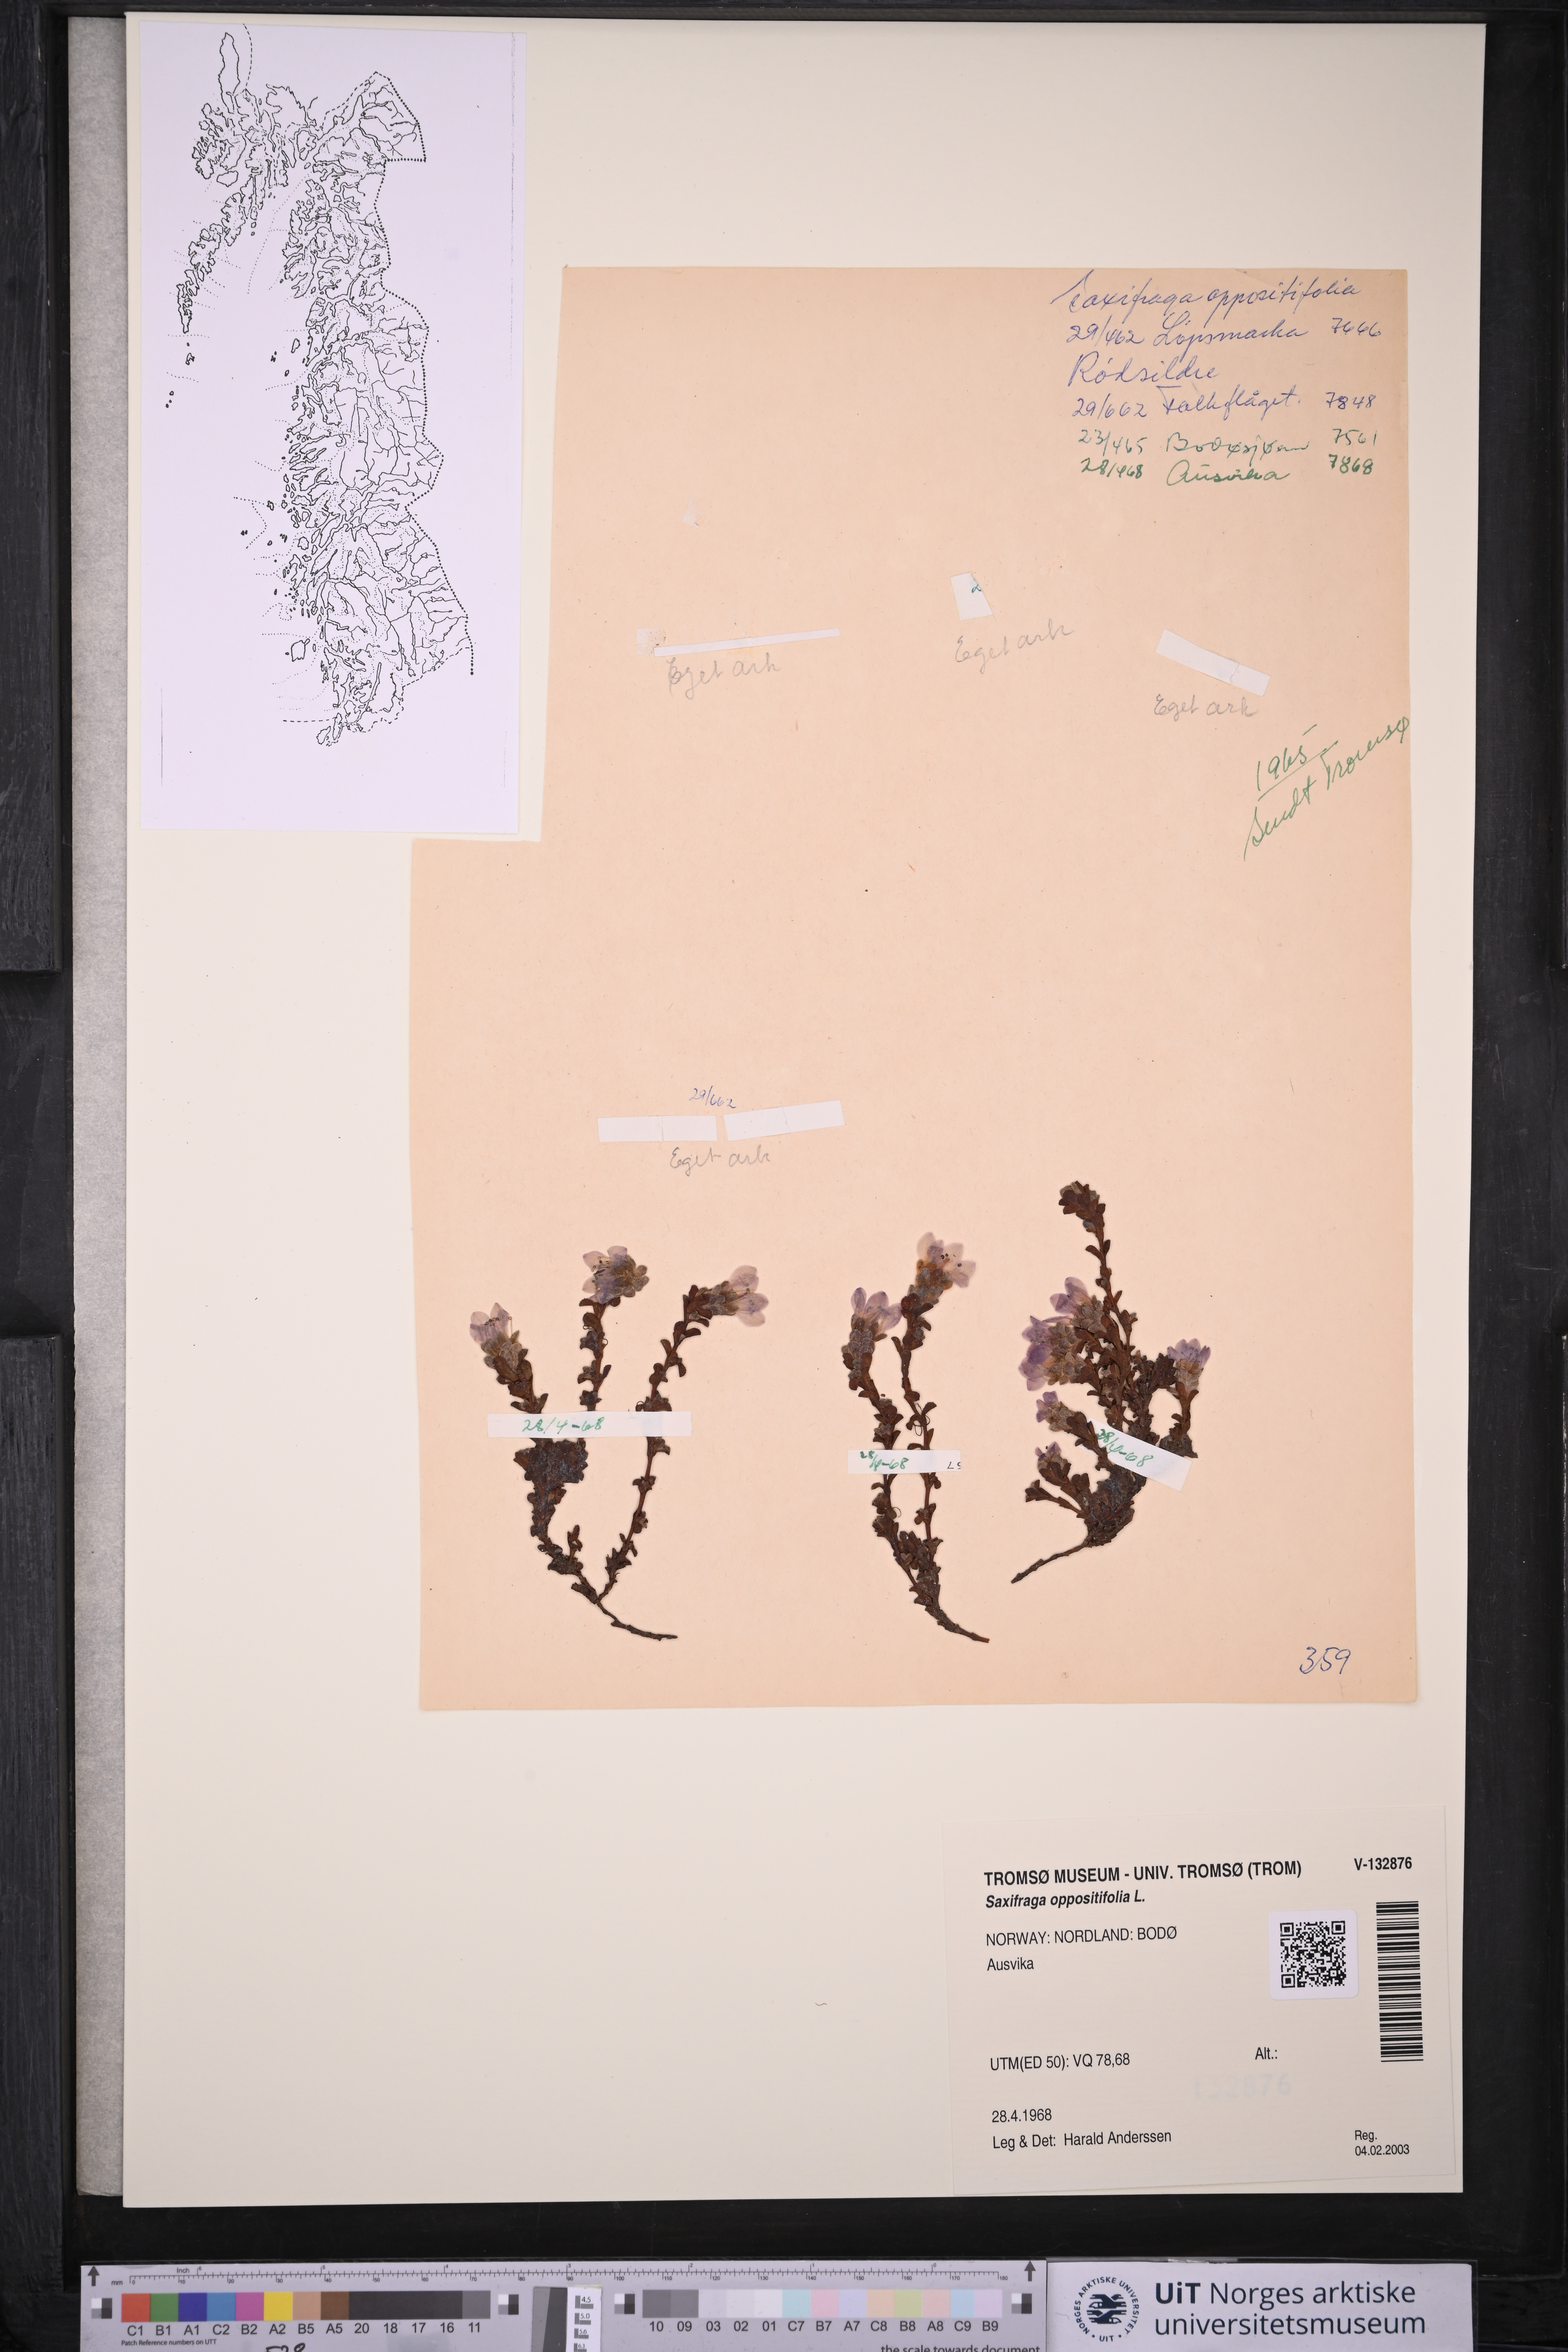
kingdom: Plantae
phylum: Tracheophyta
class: Magnoliopsida
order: Saxifragales
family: Saxifragaceae
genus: Saxifraga
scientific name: Saxifraga oppositifolia
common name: Purple saxifrage
